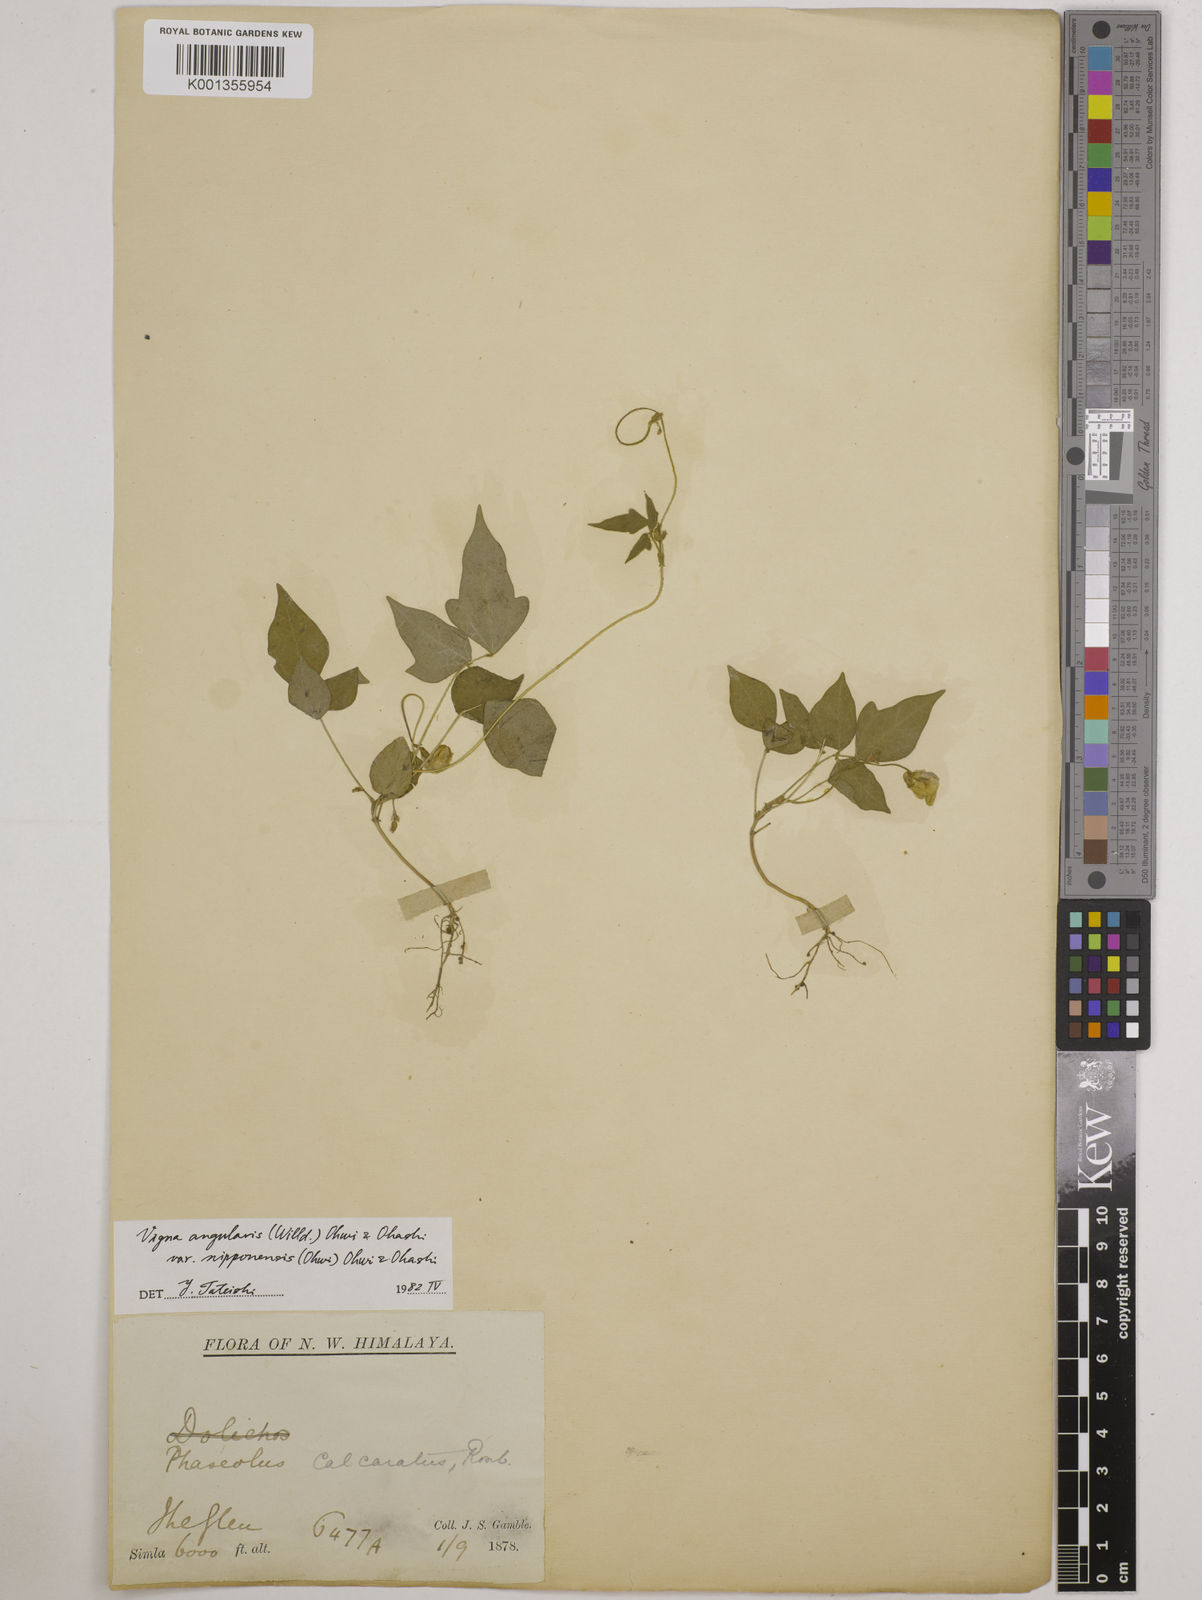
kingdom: Plantae
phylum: Tracheophyta
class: Magnoliopsida
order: Fabales
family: Fabaceae
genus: Vigna
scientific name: Vigna
